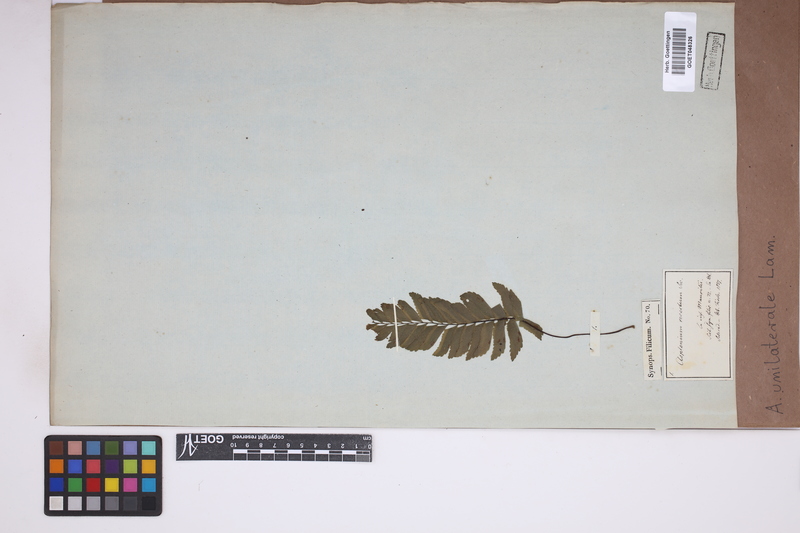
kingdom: Plantae
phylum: Tracheophyta
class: Polypodiopsida
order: Polypodiales
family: Aspleniaceae
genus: Hymenasplenium
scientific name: Hymenasplenium unilaterale
